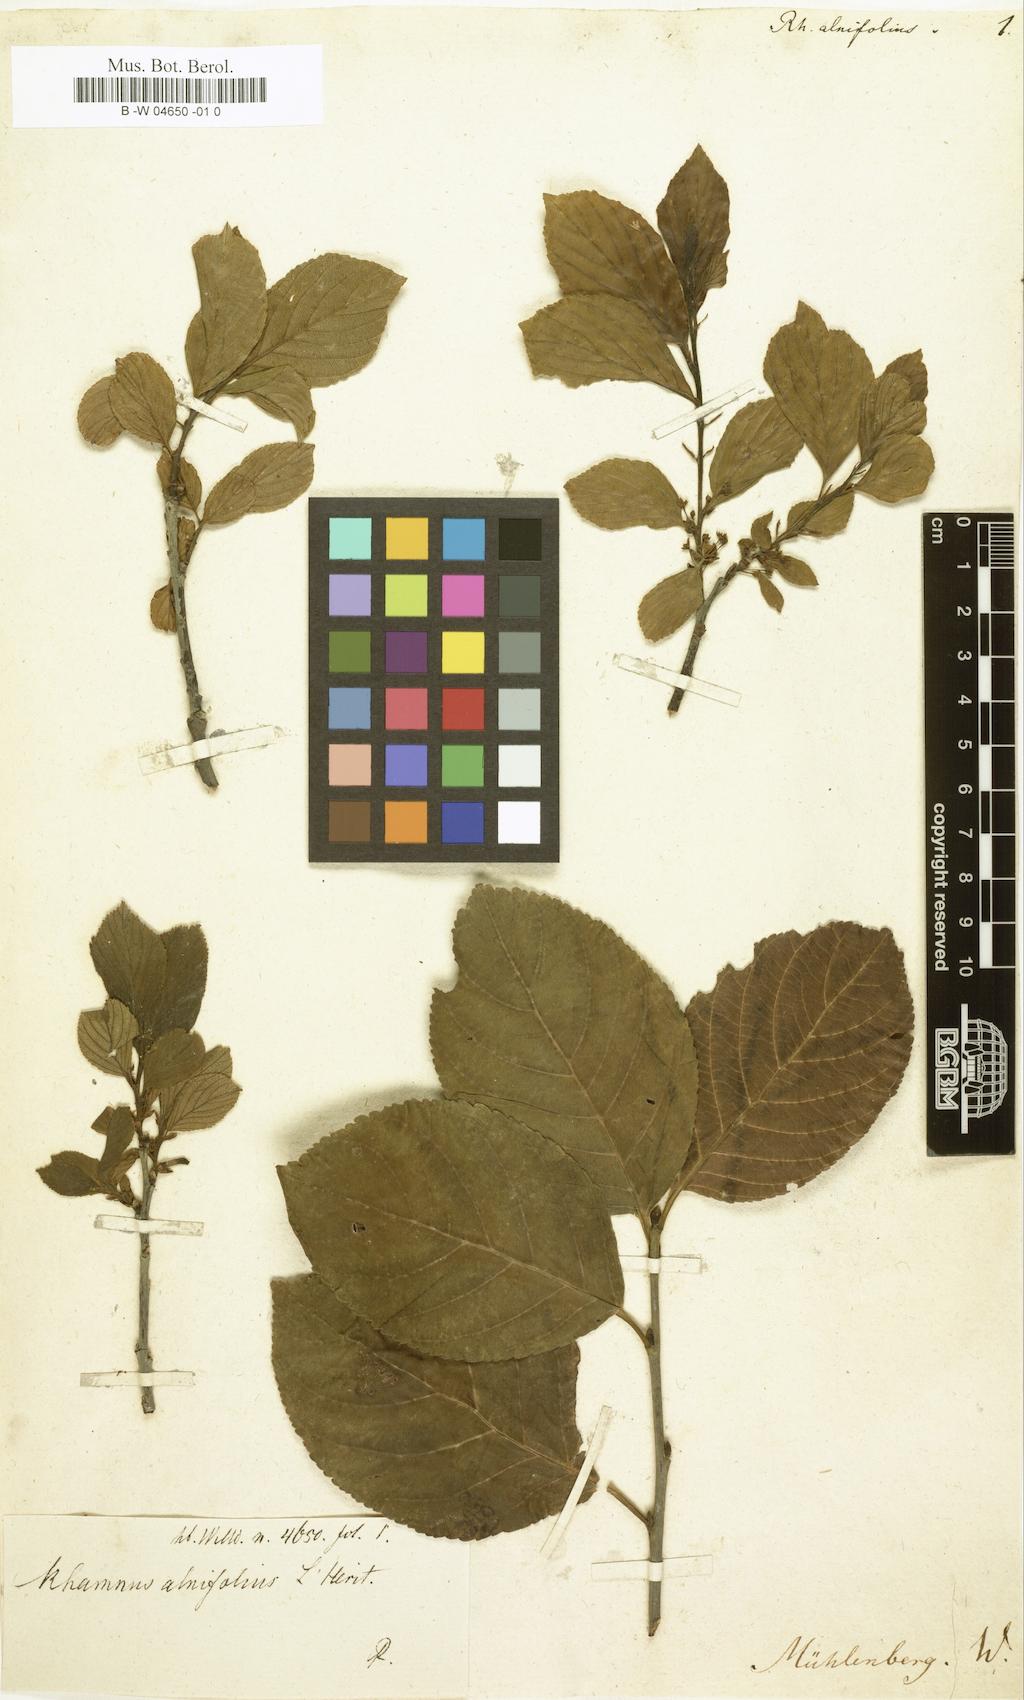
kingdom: Plantae
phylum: Tracheophyta
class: Magnoliopsida
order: Rosales
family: Rhamnaceae
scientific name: Rhamnaceae
